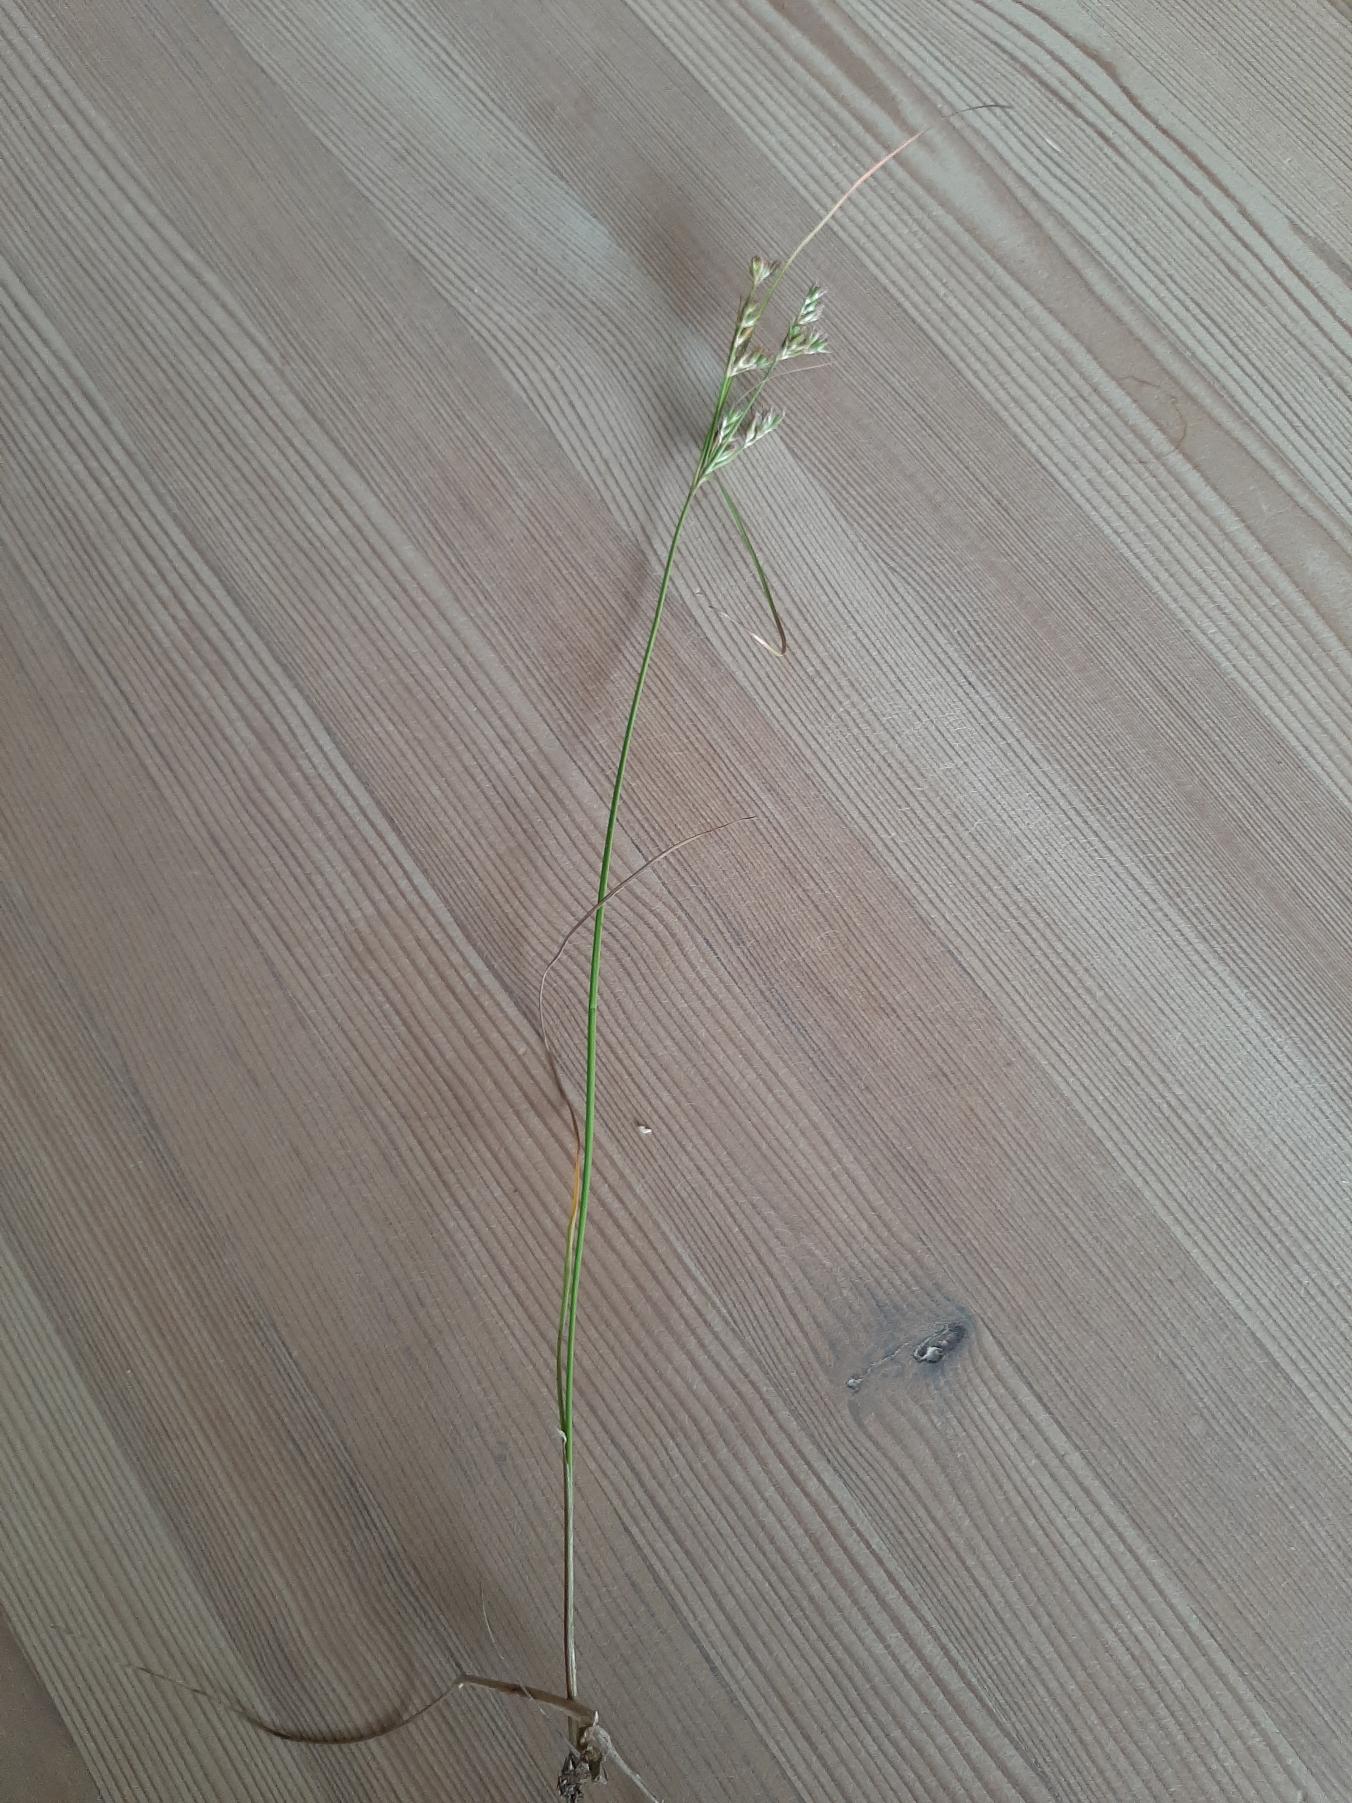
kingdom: Plantae
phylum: Tracheophyta
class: Liliopsida
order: Poales
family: Juncaceae
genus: Juncus
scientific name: Juncus tenuis
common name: Tue-siv
